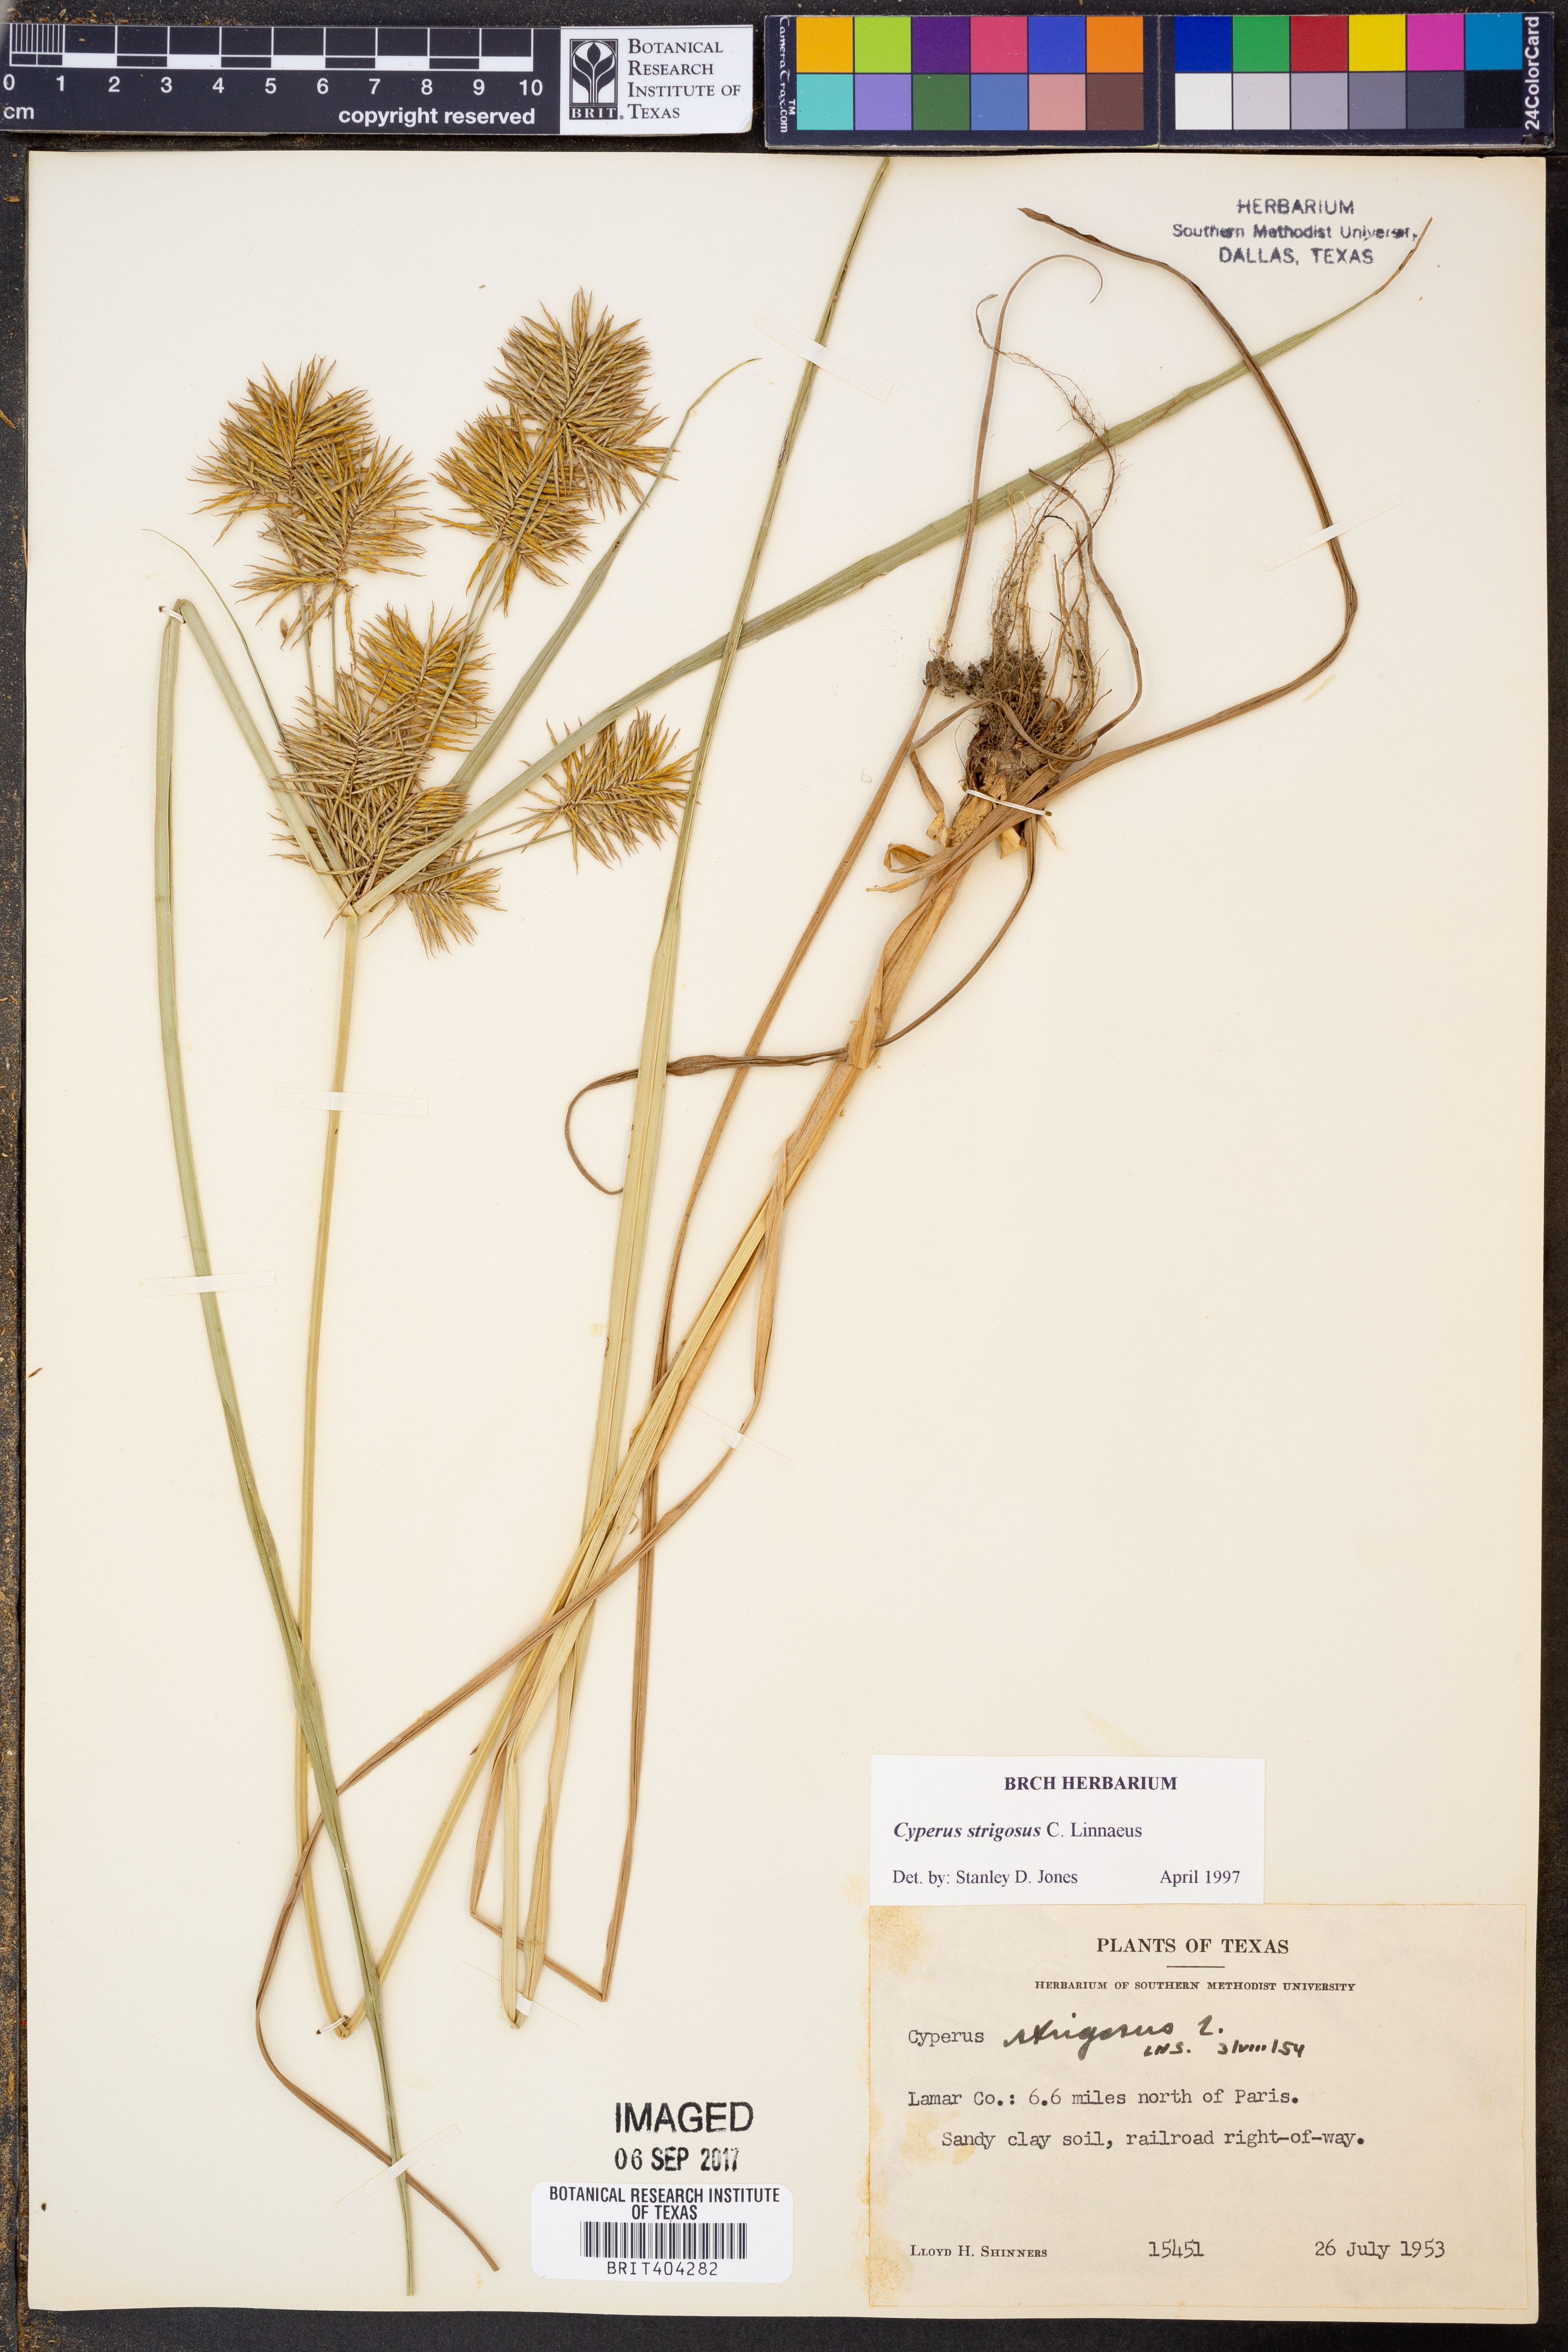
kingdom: Plantae
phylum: Tracheophyta
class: Liliopsida
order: Poales
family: Cyperaceae
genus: Cyperus
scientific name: Cyperus strigosus
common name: False nutsedge
